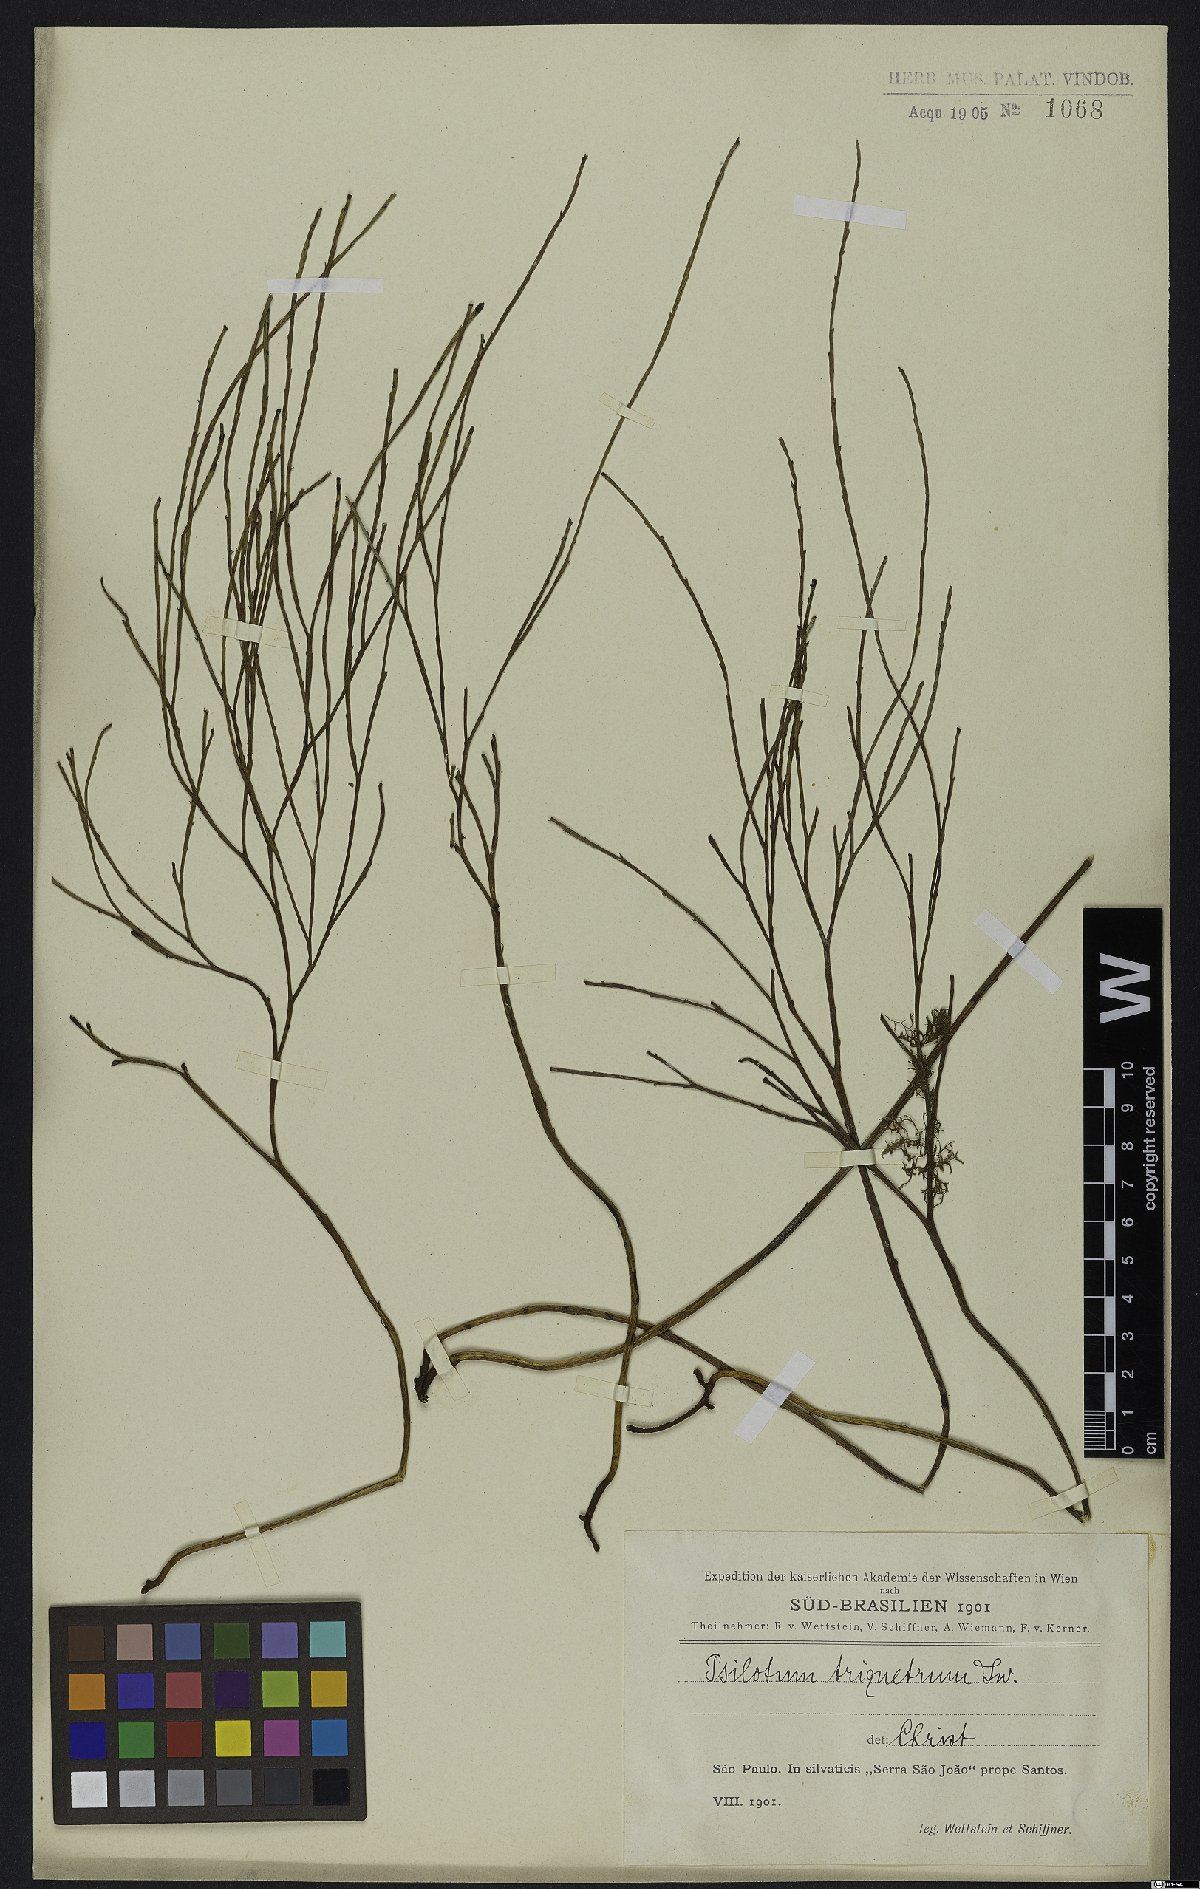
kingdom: Plantae
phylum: Tracheophyta
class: Polypodiopsida
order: Psilotales
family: Psilotaceae
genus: Psilotum
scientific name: Psilotum nudum
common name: Skeleton fork fern
